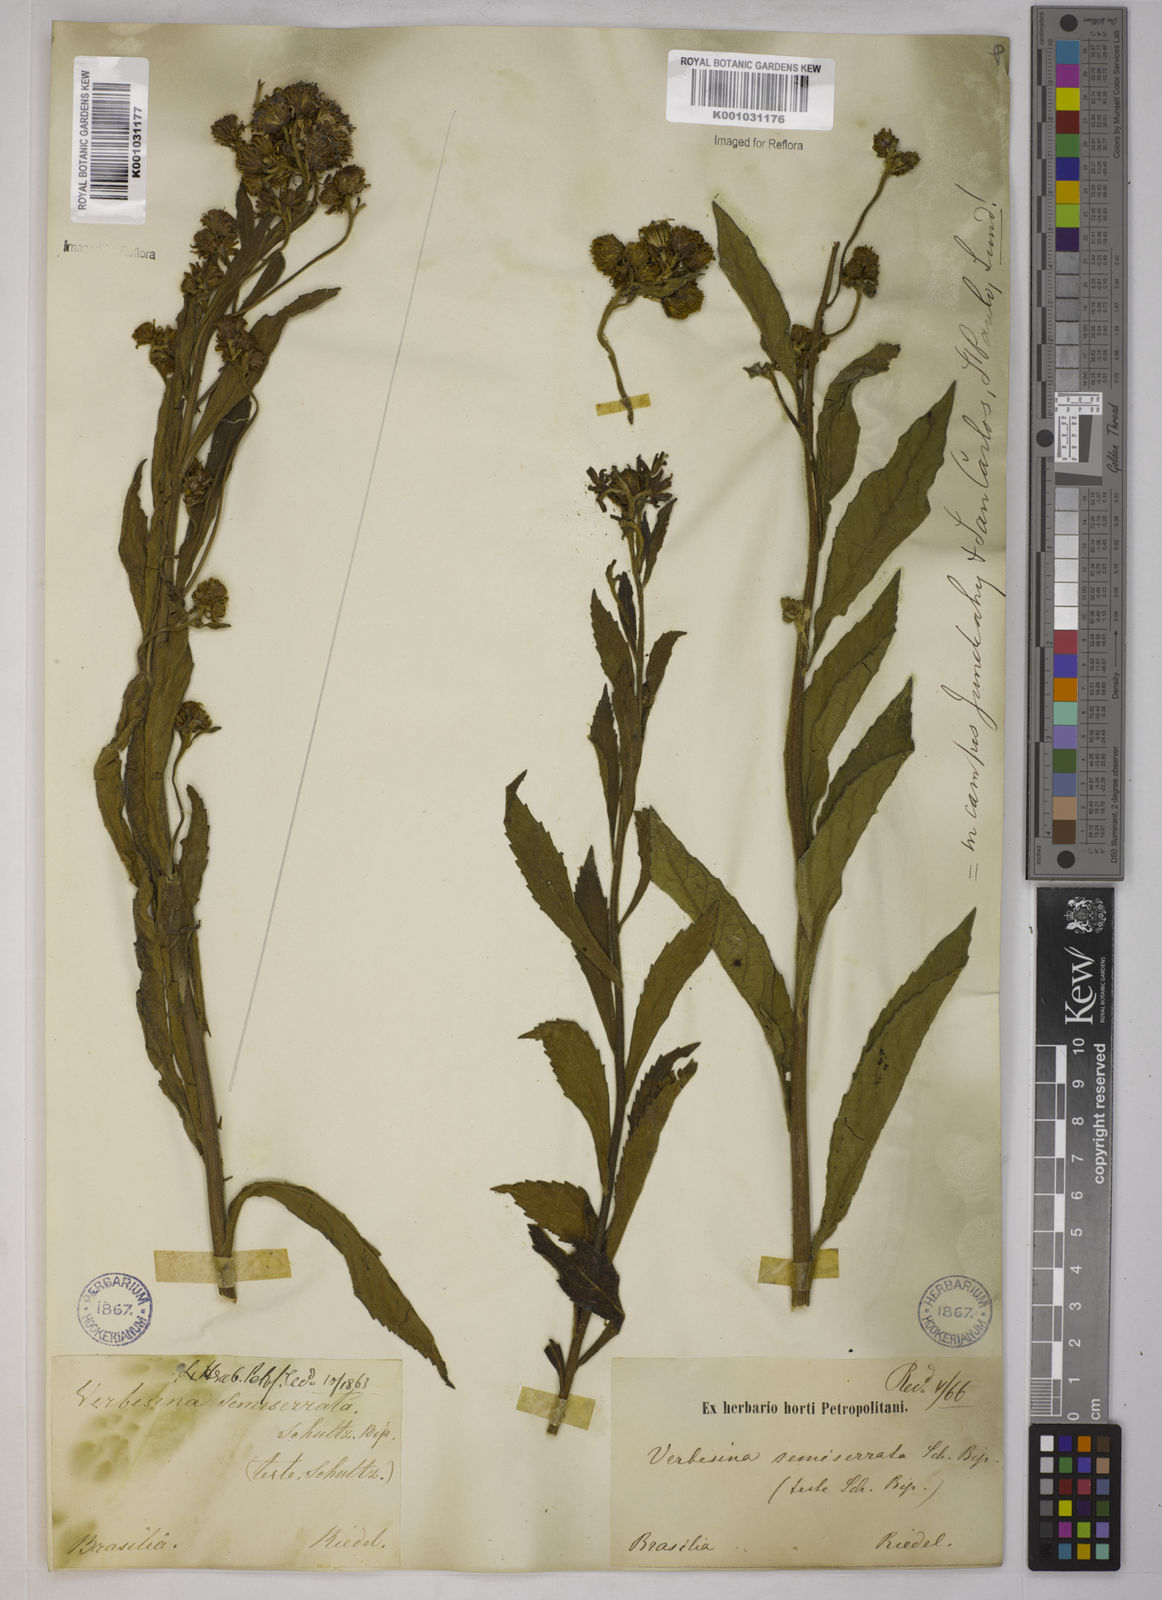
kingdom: Plantae
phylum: Tracheophyta
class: Magnoliopsida
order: Asterales
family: Asteraceae
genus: Verbesina
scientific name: Verbesina sordescens
